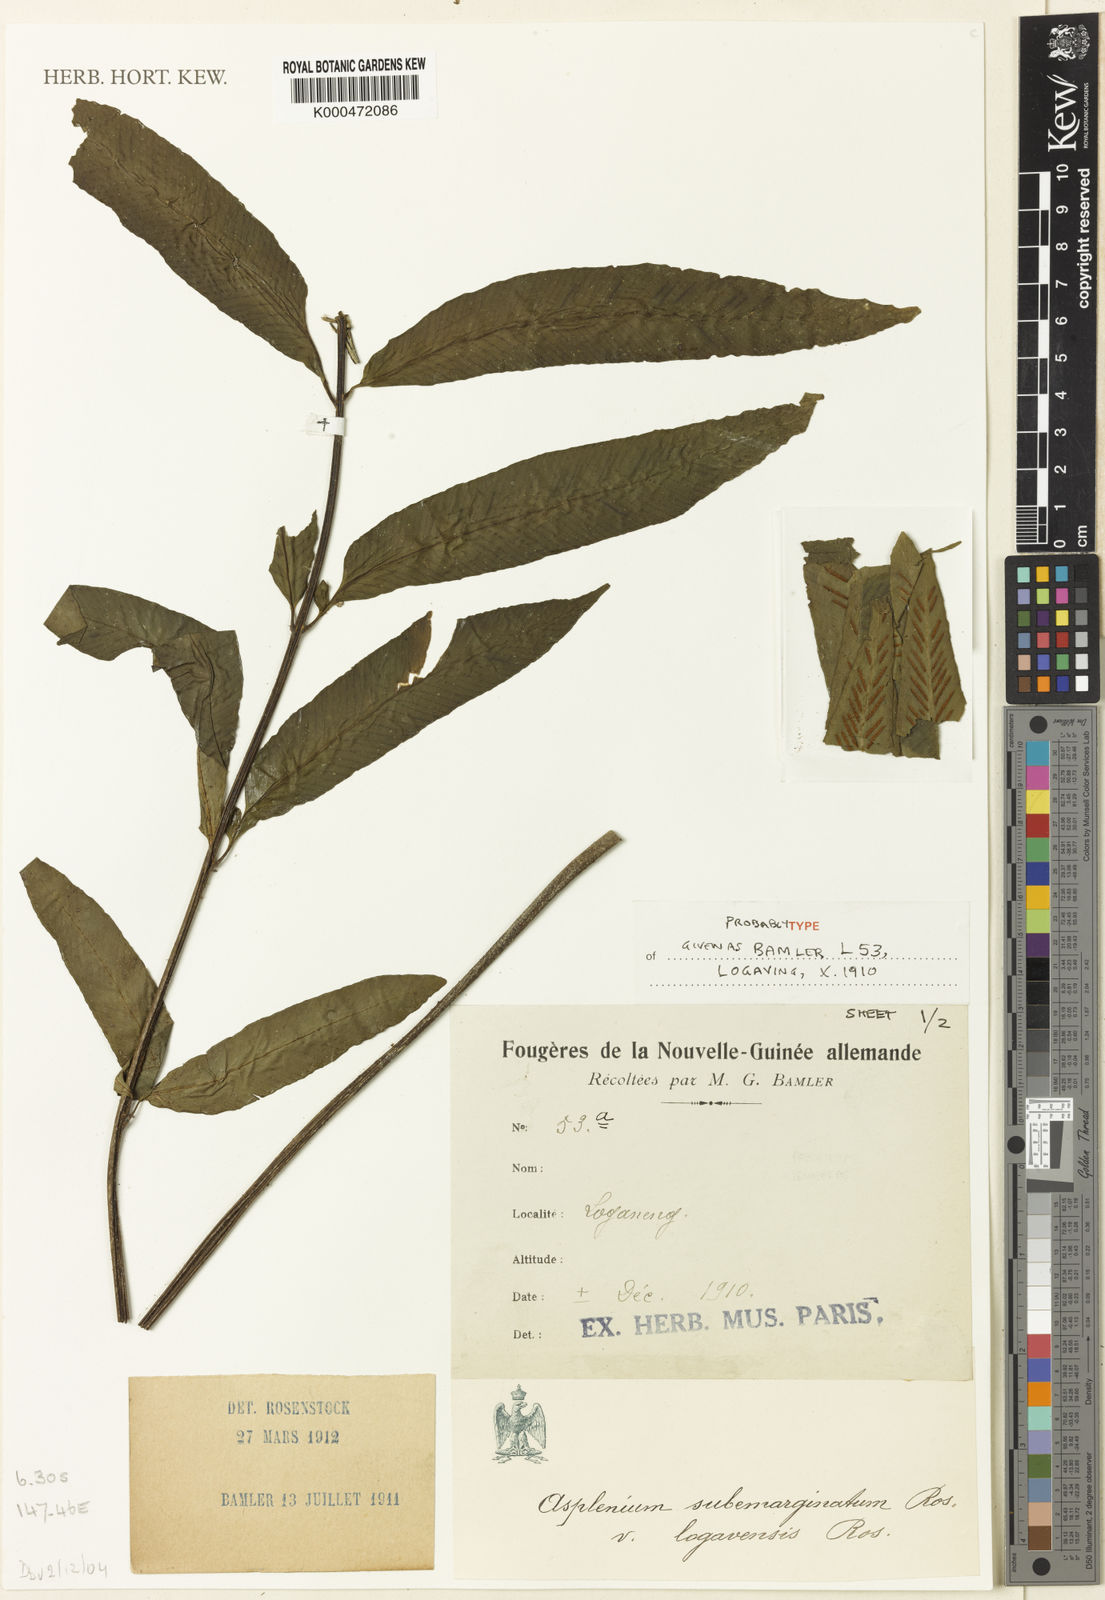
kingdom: Plantae
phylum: Tracheophyta
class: Polypodiopsida
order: Polypodiales
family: Aspleniaceae
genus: Asplenium
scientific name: Asplenium subemarginatum
